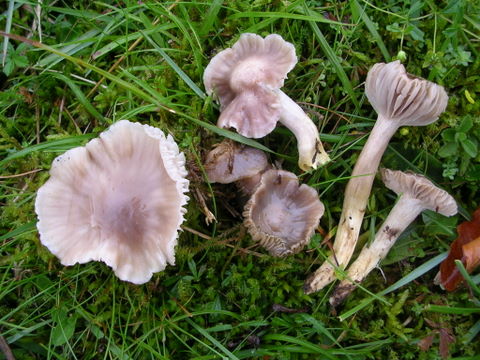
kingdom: Fungi
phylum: Basidiomycota
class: Agaricomycetes
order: Agaricales
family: Hygrophoraceae
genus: Cuphophyllus
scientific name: Cuphophyllus flavipes
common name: gulfodet vokshat
